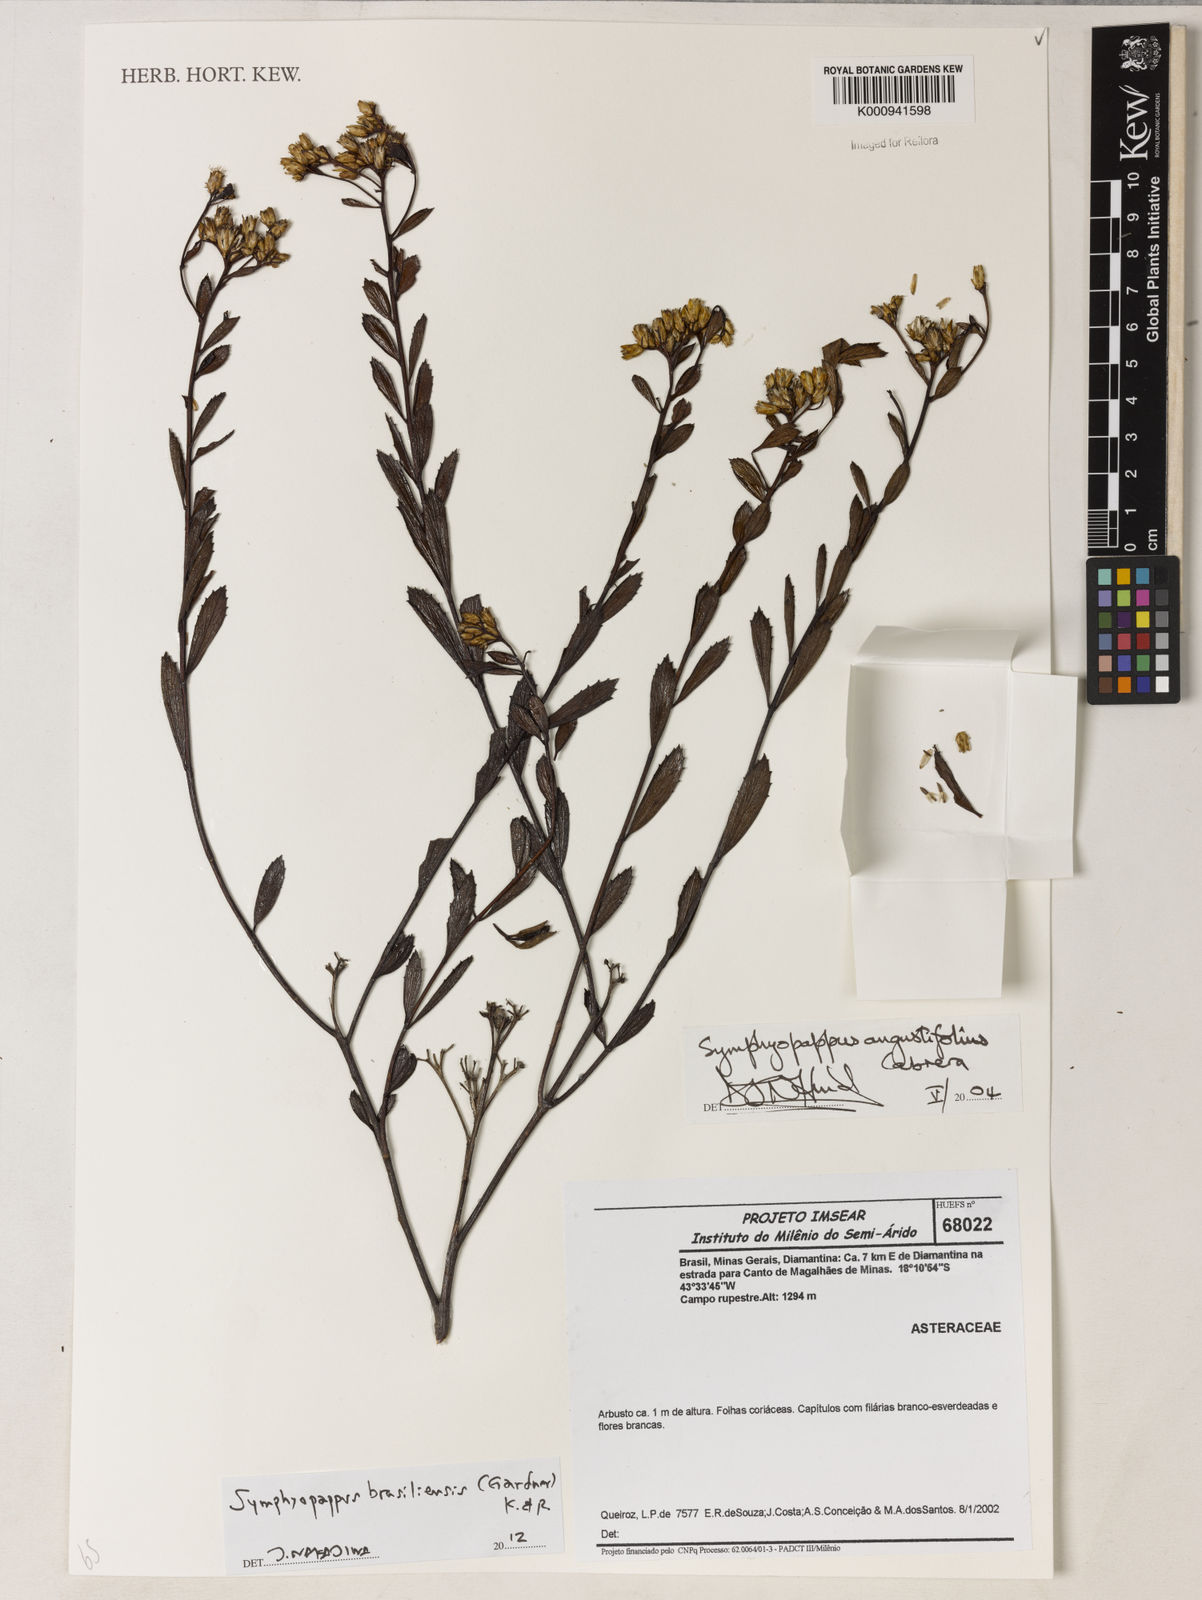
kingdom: Plantae
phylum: Tracheophyta
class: Magnoliopsida
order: Asterales
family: Asteraceae
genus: Symphyopappus
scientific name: Symphyopappus brasiliensis
